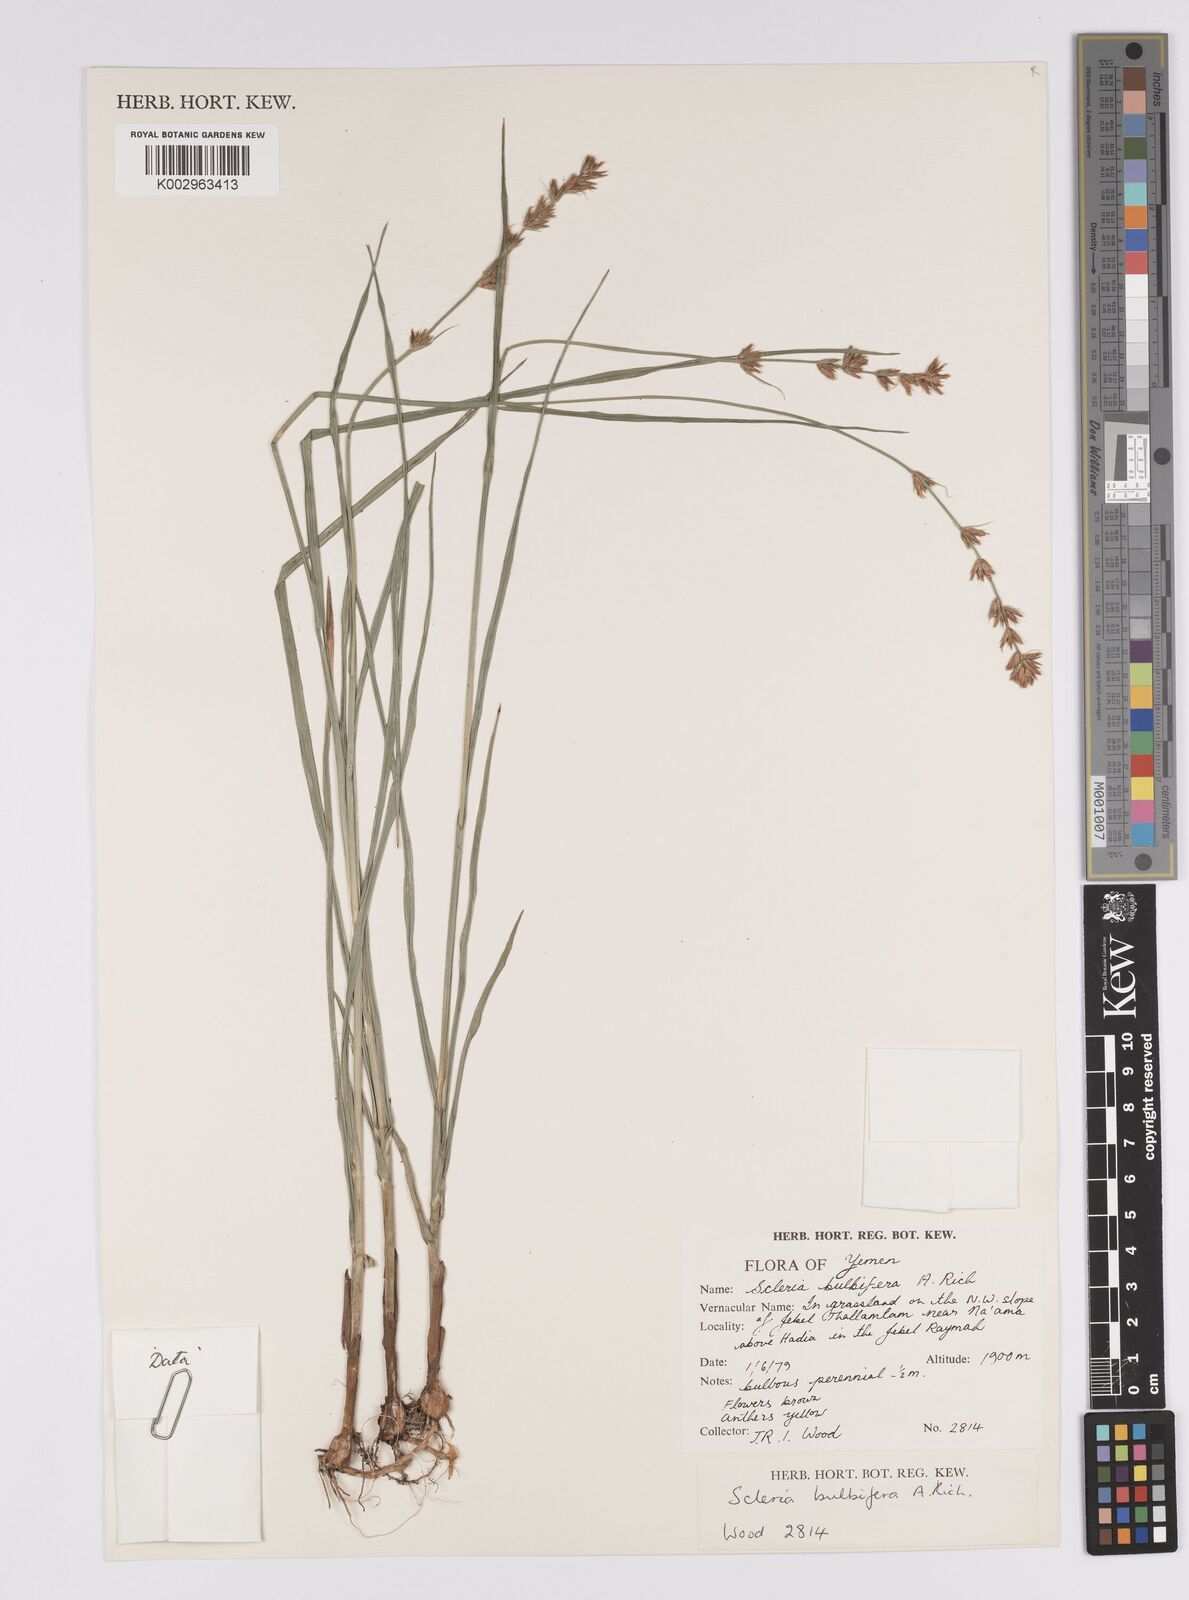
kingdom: Plantae
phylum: Tracheophyta
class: Liliopsida
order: Poales
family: Cyperaceae
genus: Scleria
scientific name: Scleria bulbifera
